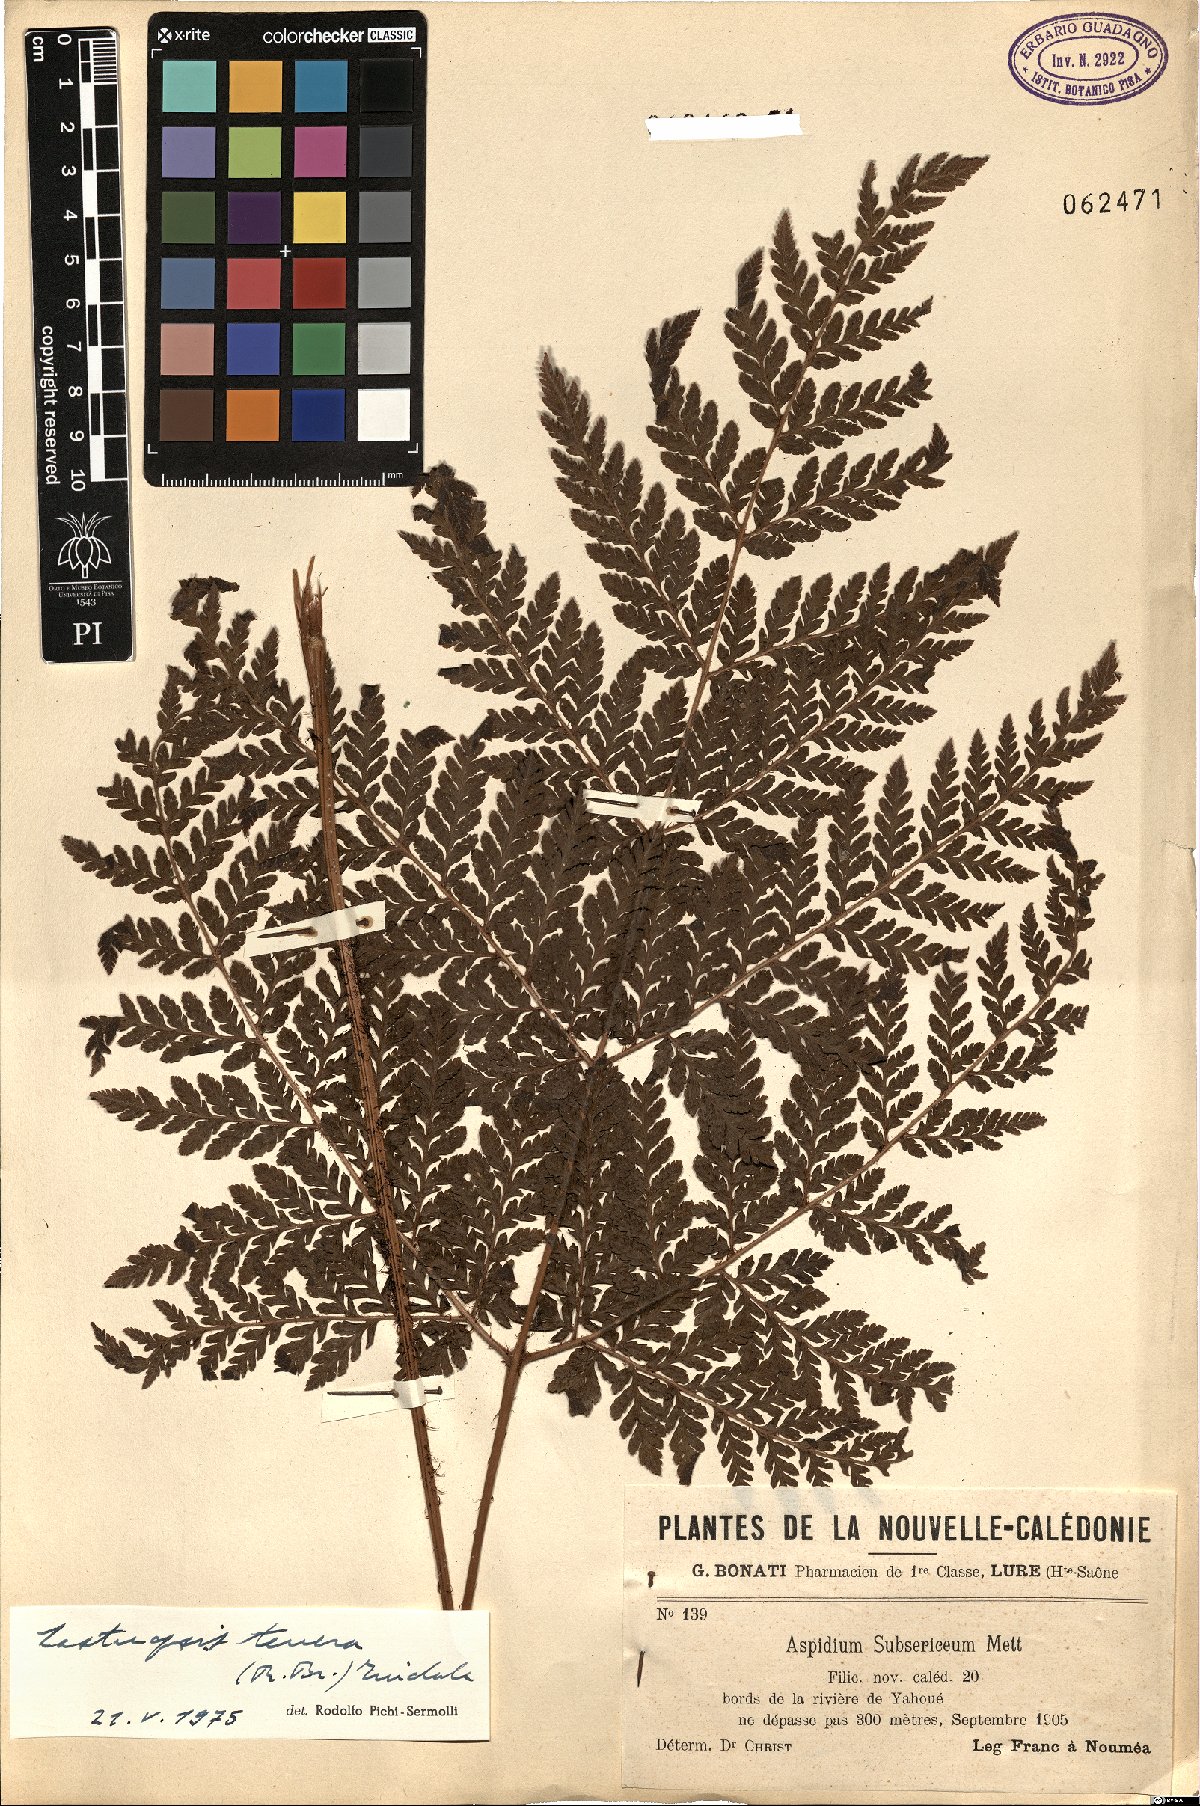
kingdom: Plantae
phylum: Tracheophyta
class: Polypodiopsida
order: Polypodiales
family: Dryopteridaceae
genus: Lastreopsis
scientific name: Lastreopsis tenera
